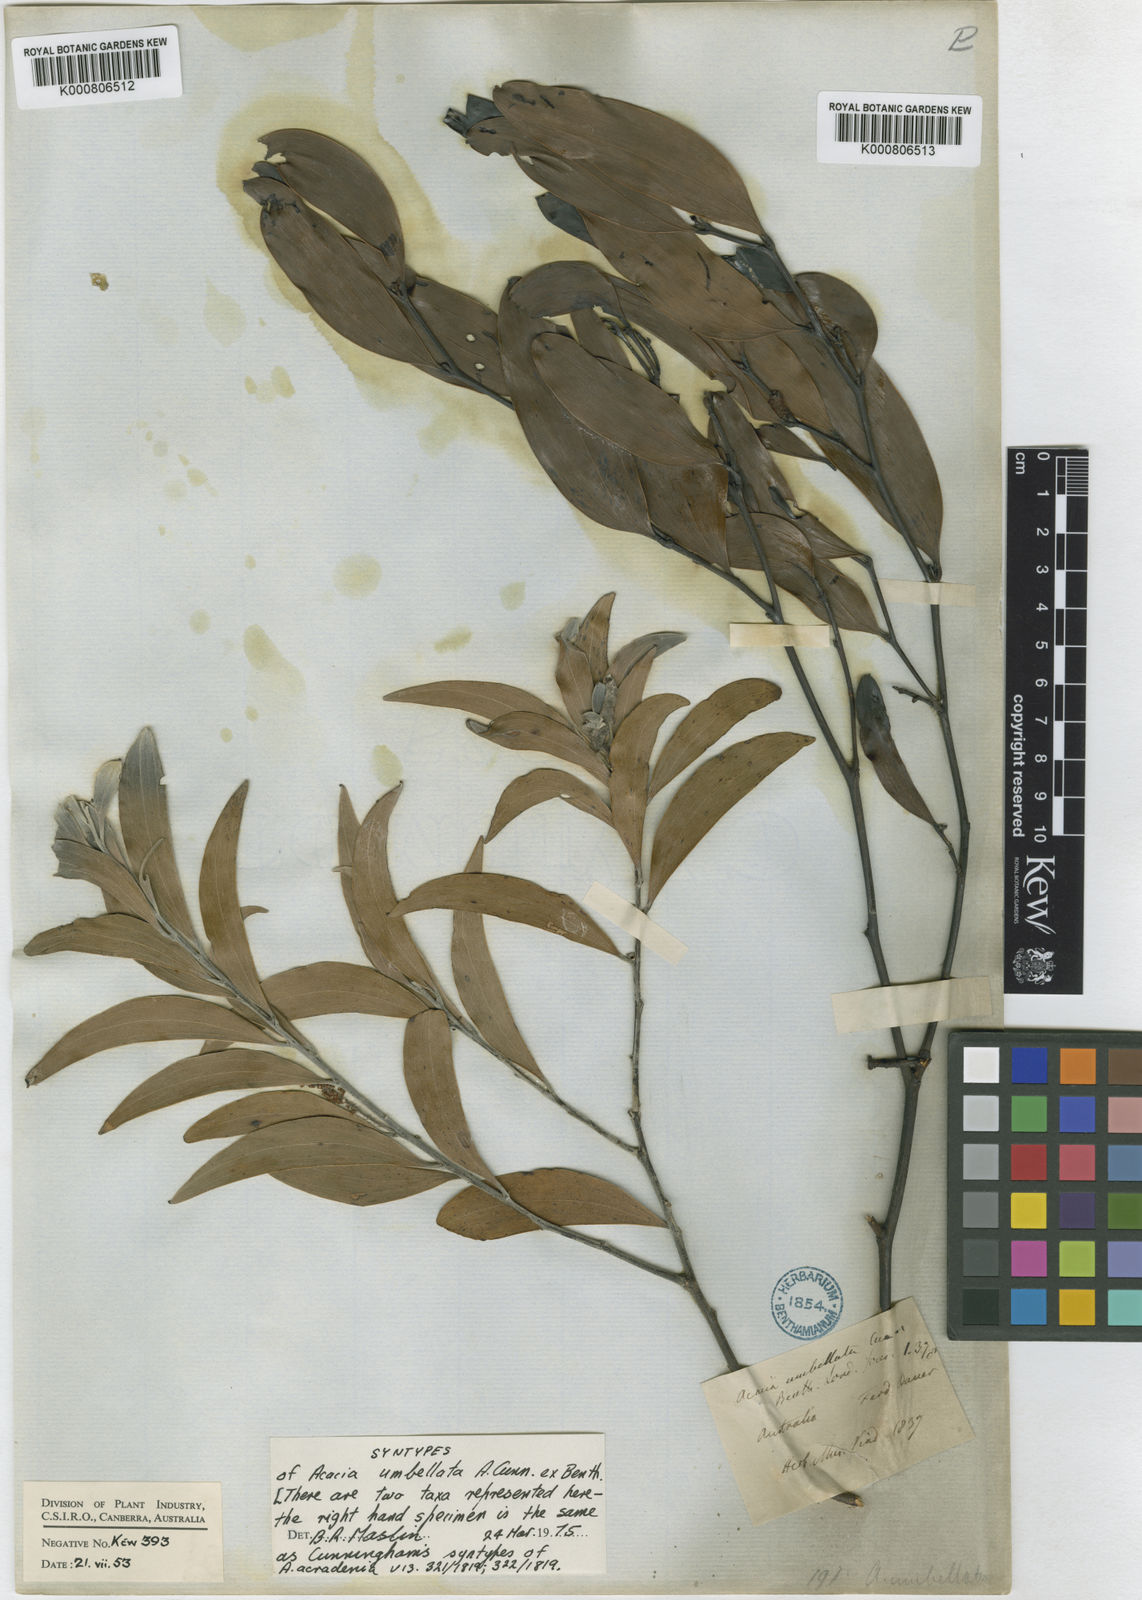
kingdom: Plantae
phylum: Tracheophyta
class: Magnoliopsida
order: Fabales
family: Fabaceae
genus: Acacia
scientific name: Acacia umbellata
